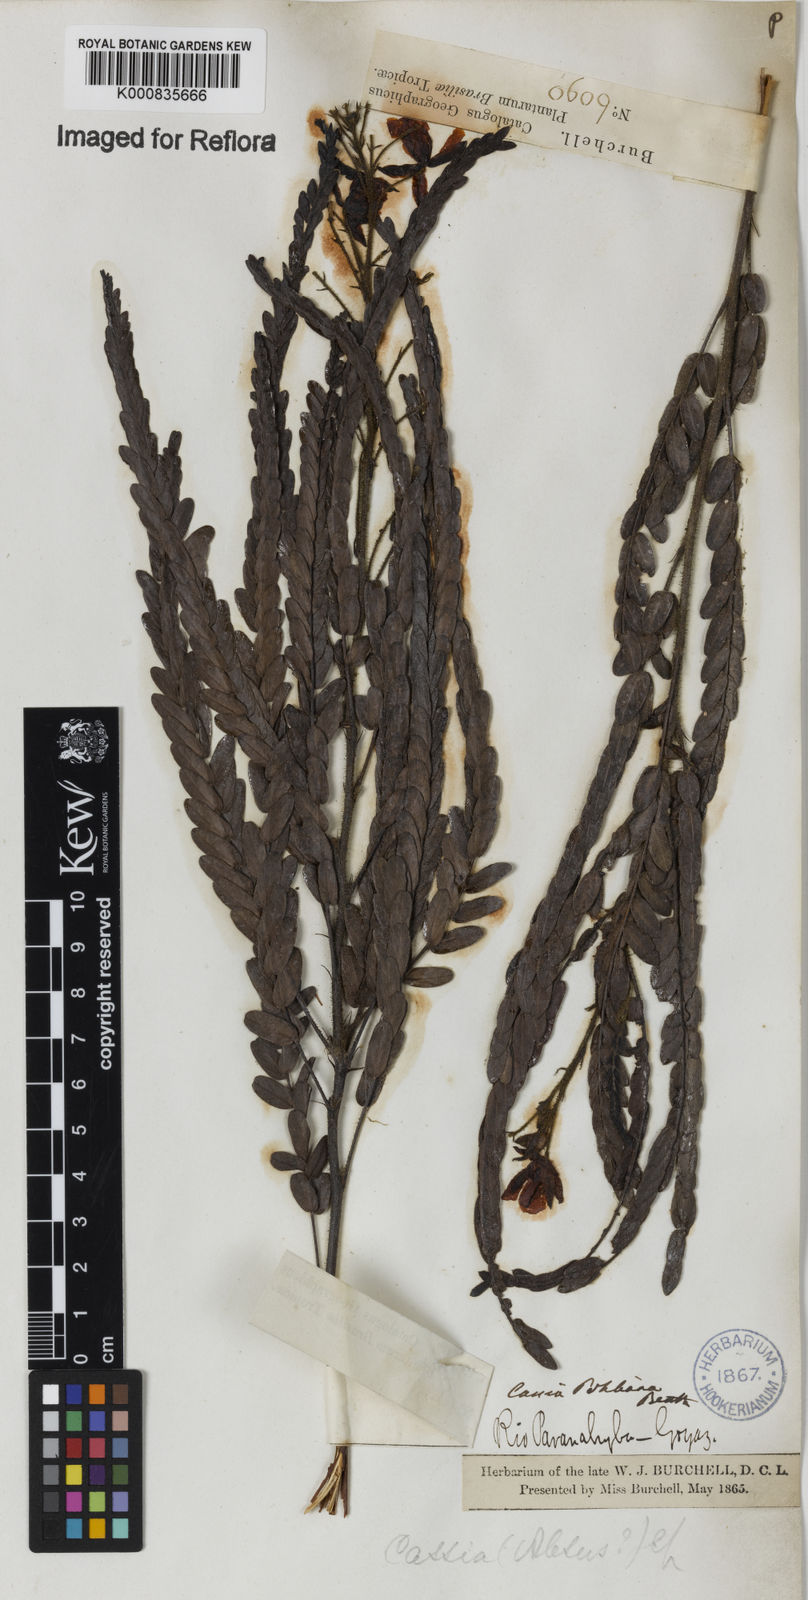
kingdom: Plantae
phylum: Tracheophyta
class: Magnoliopsida
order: Fabales
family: Fabaceae
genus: Chamaecrista
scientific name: Chamaecrista pohliana
